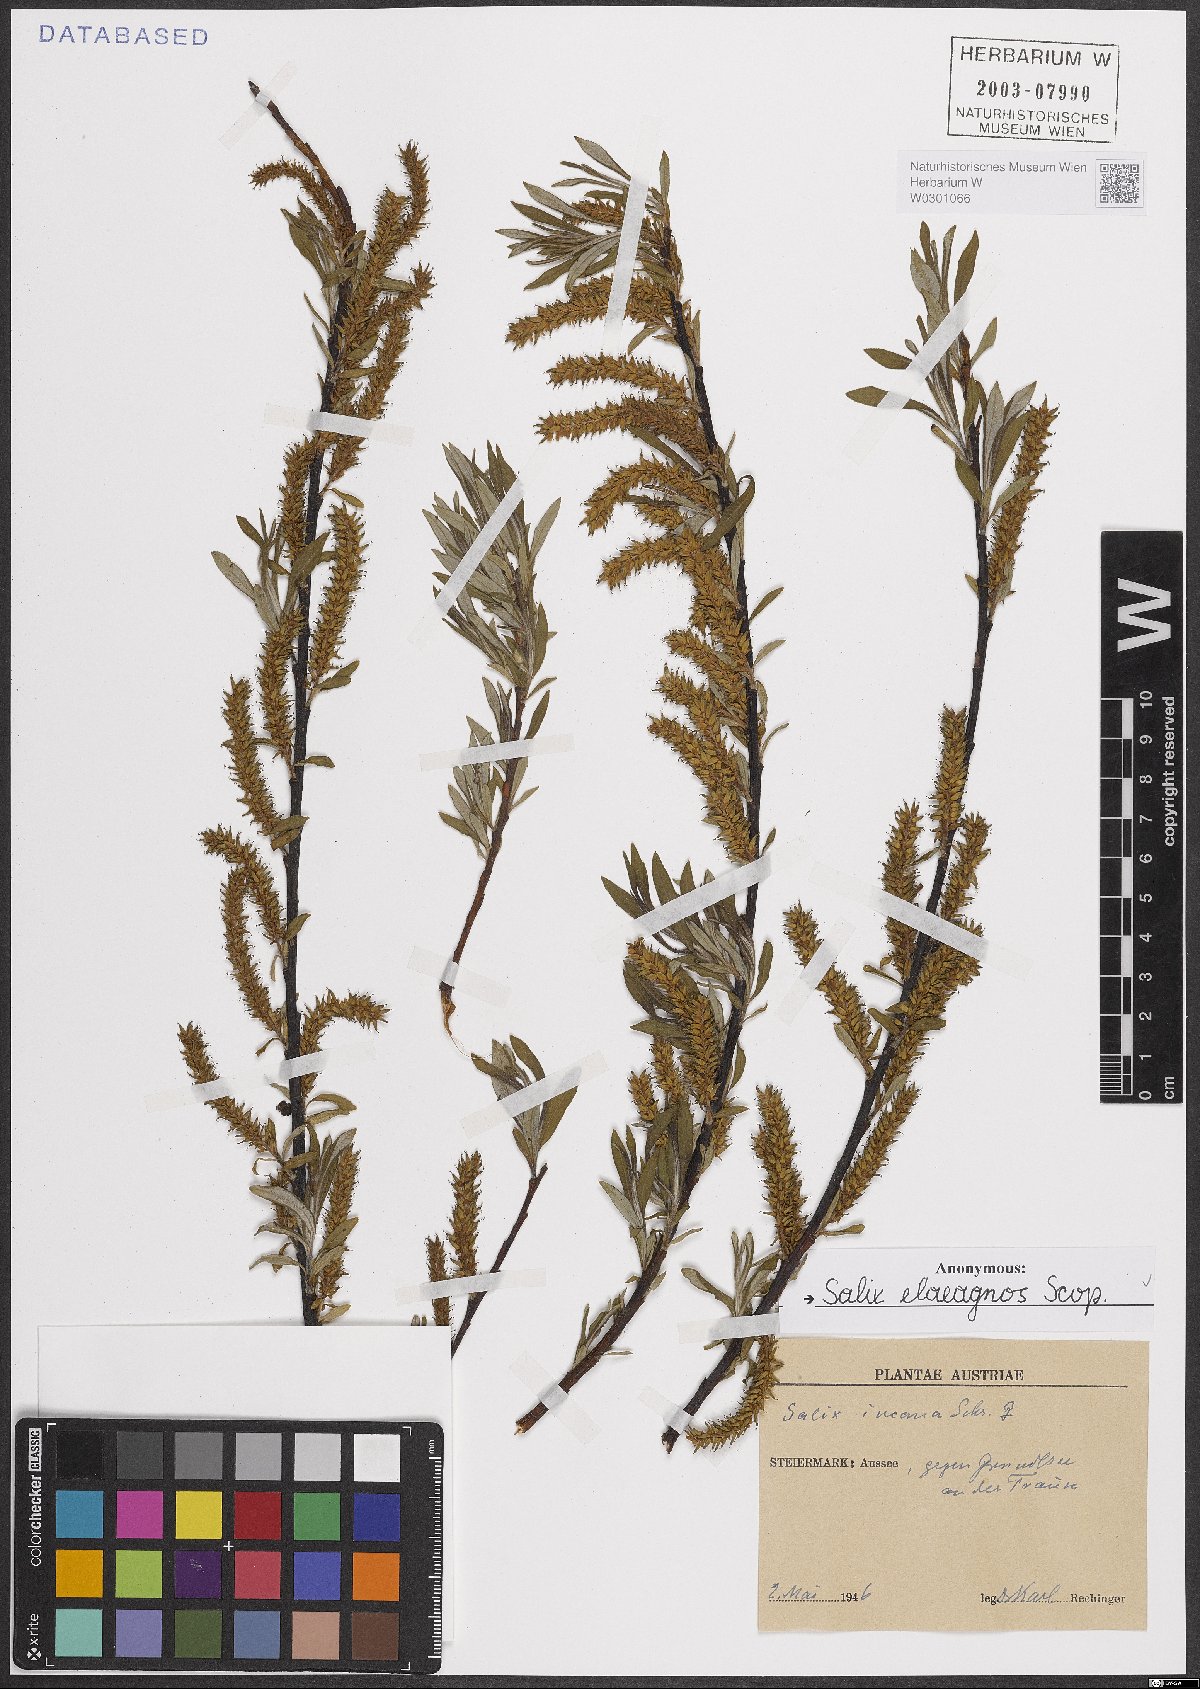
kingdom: Plantae
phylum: Tracheophyta
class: Magnoliopsida
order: Malpighiales
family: Salicaceae
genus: Salix
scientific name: Salix eleagnos
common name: Elaeagnus willow
